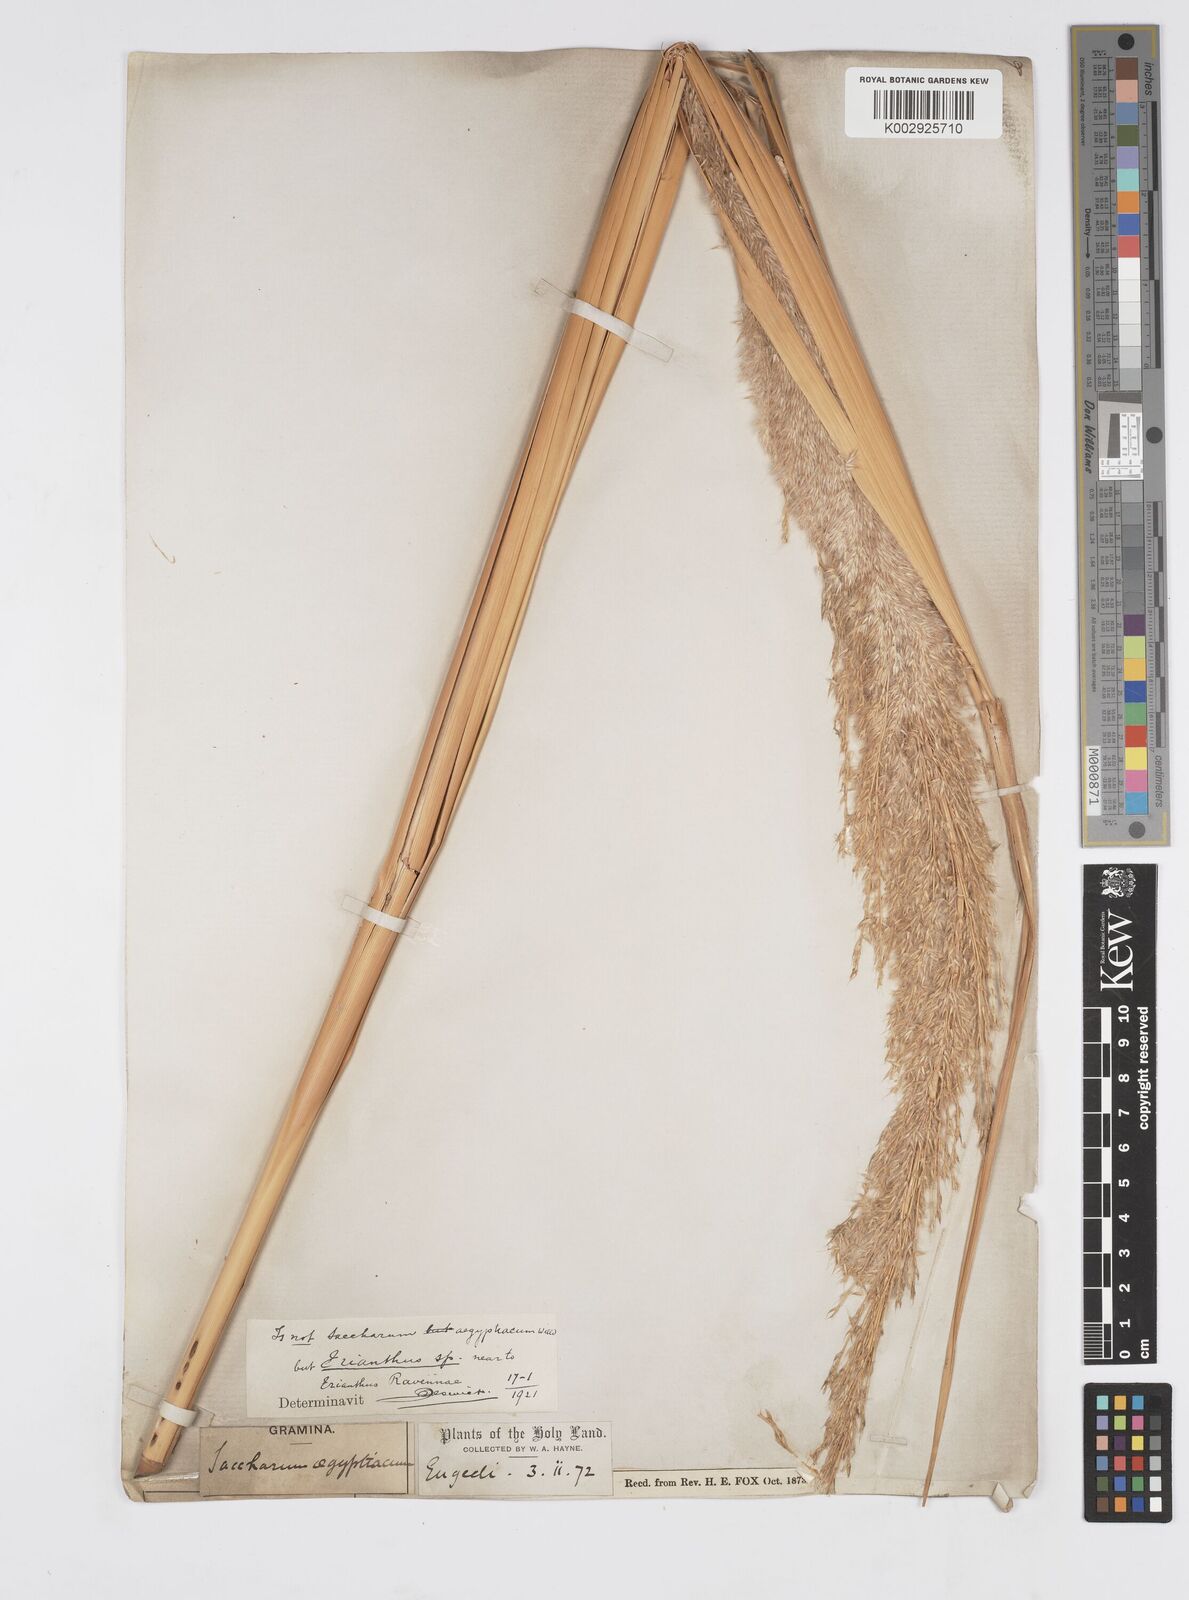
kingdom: Plantae
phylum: Tracheophyta
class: Liliopsida
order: Poales
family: Poaceae
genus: Tripidium
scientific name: Tripidium ravennae
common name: Ravenna grass
